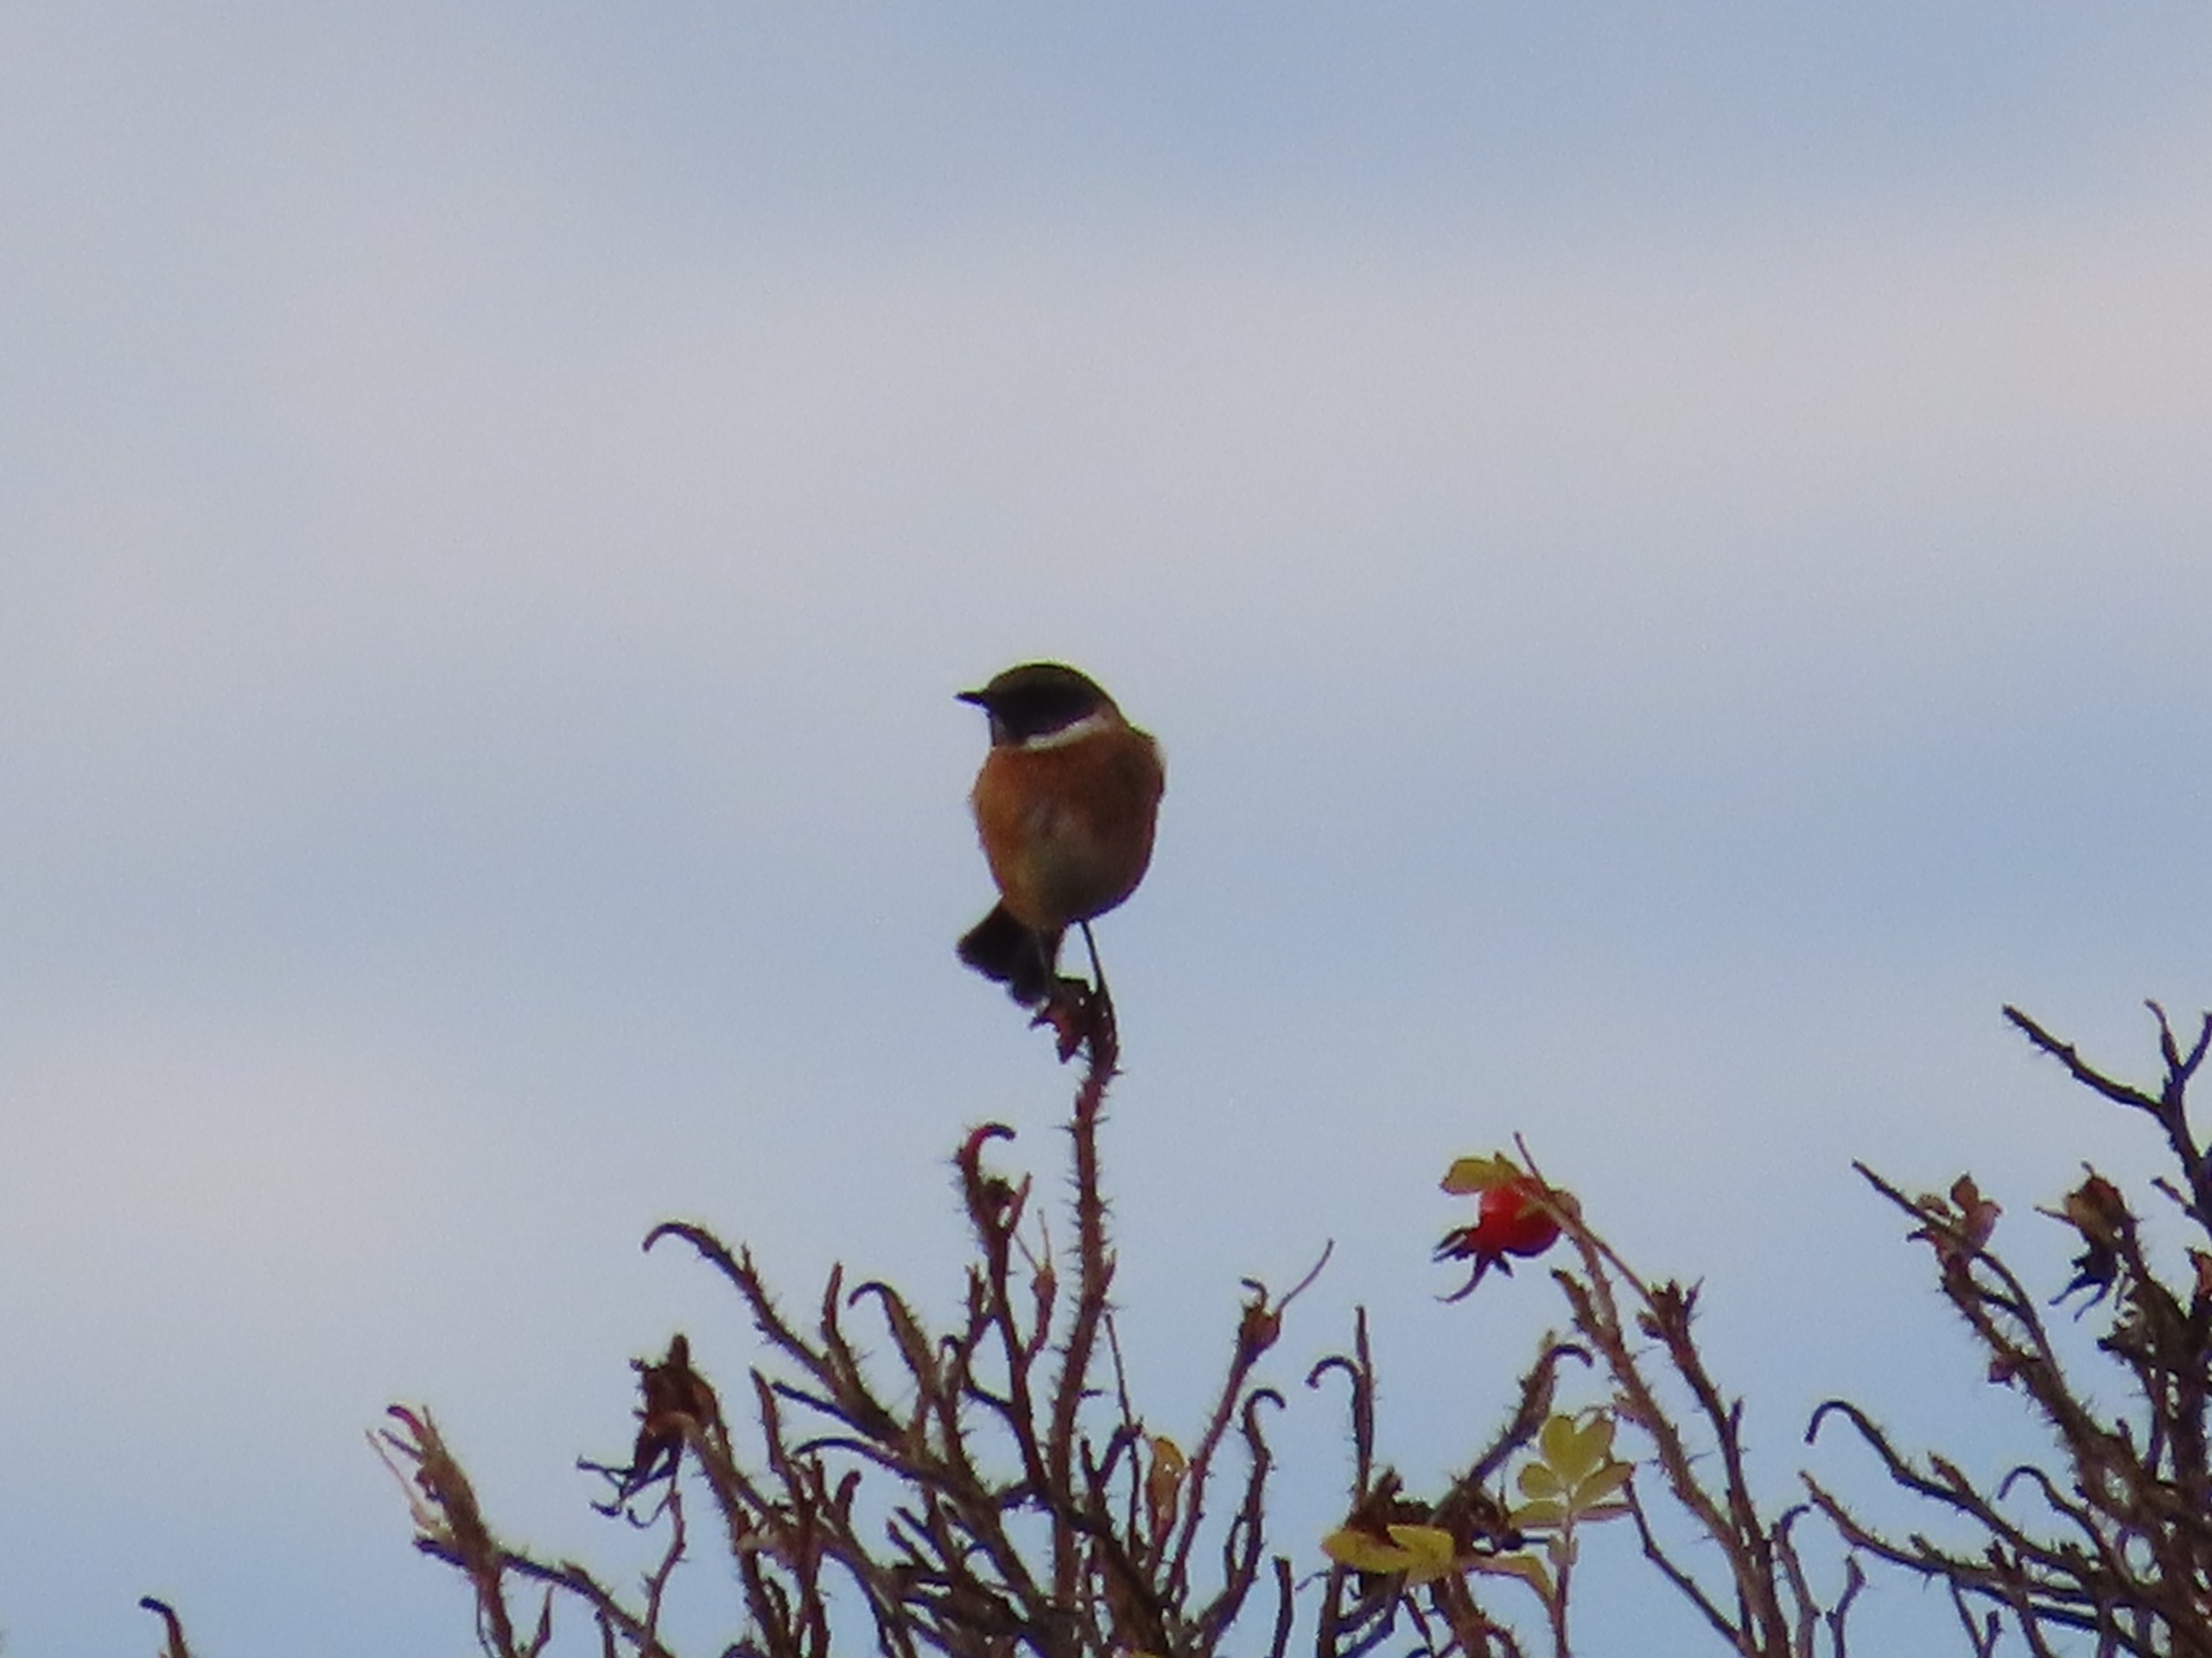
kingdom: Animalia
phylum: Chordata
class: Aves
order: Passeriformes
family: Muscicapidae
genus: Saxicola
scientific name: Saxicola rubicola
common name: Sortstrubet bynkefugl
